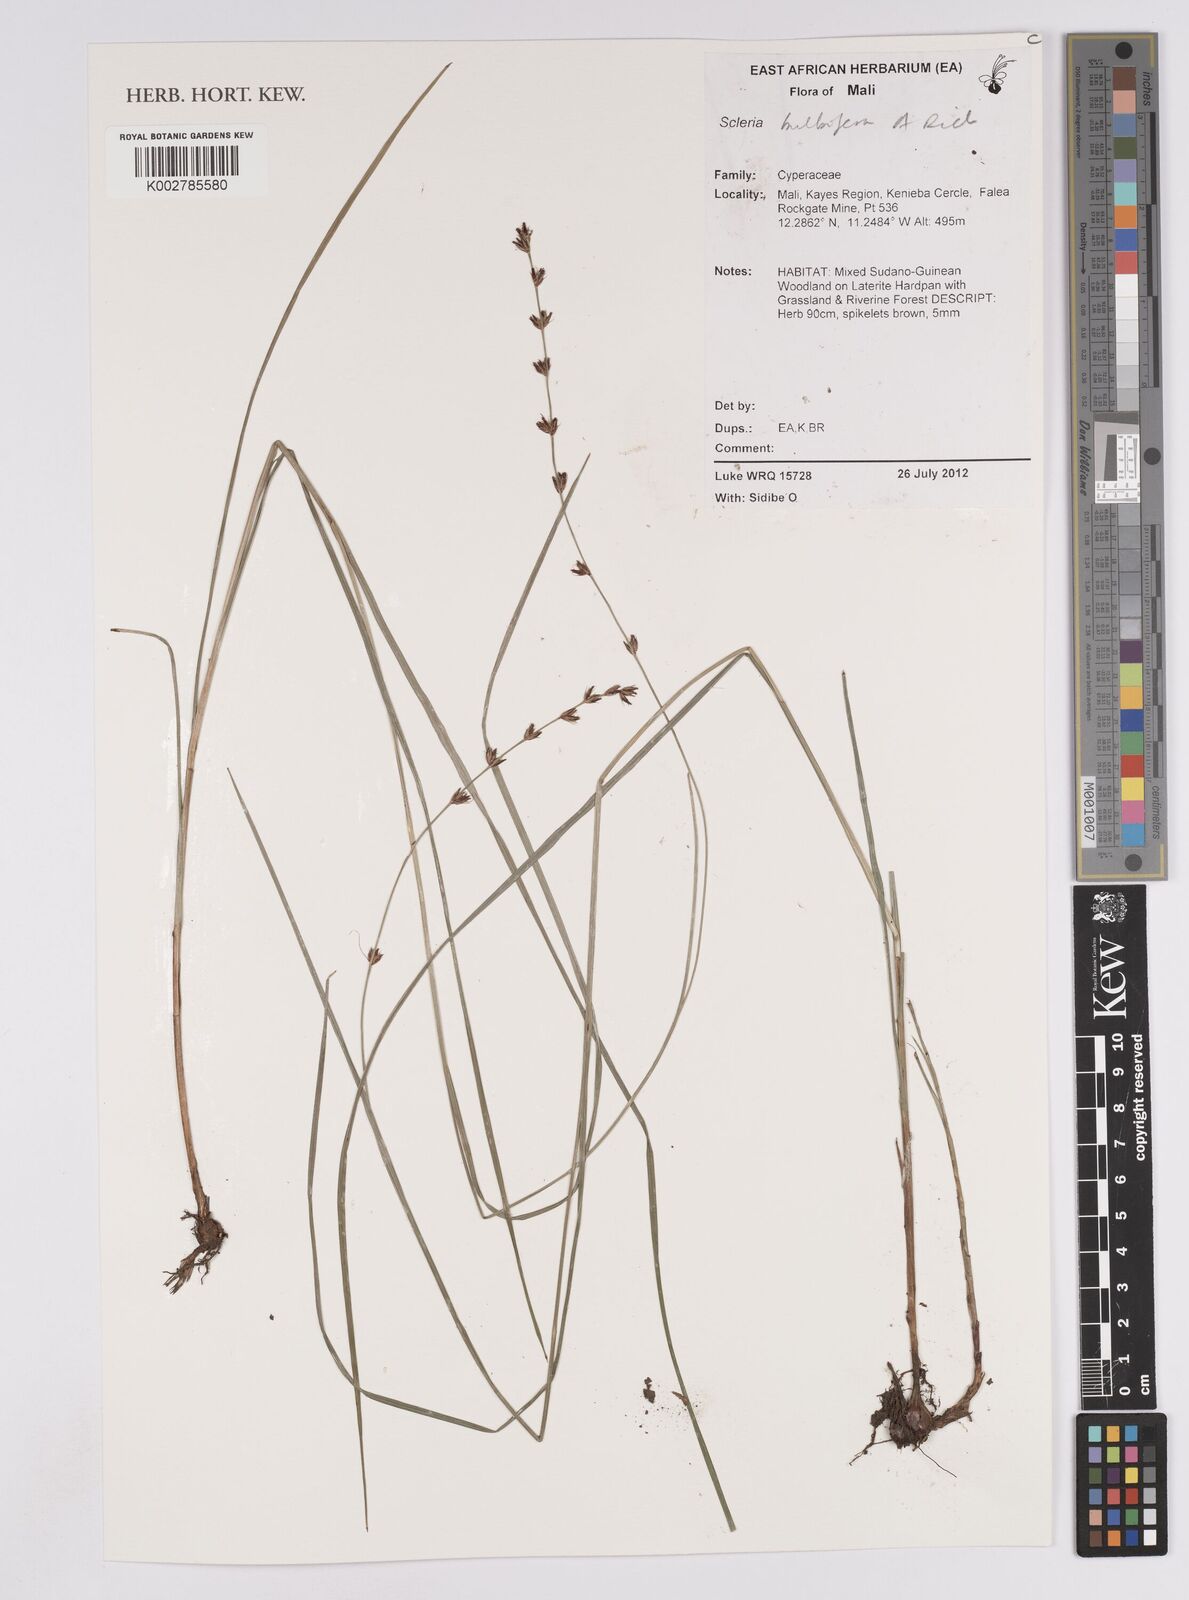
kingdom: Plantae
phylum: Tracheophyta
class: Liliopsida
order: Poales
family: Cyperaceae
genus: Scleria
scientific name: Scleria bulbifera
